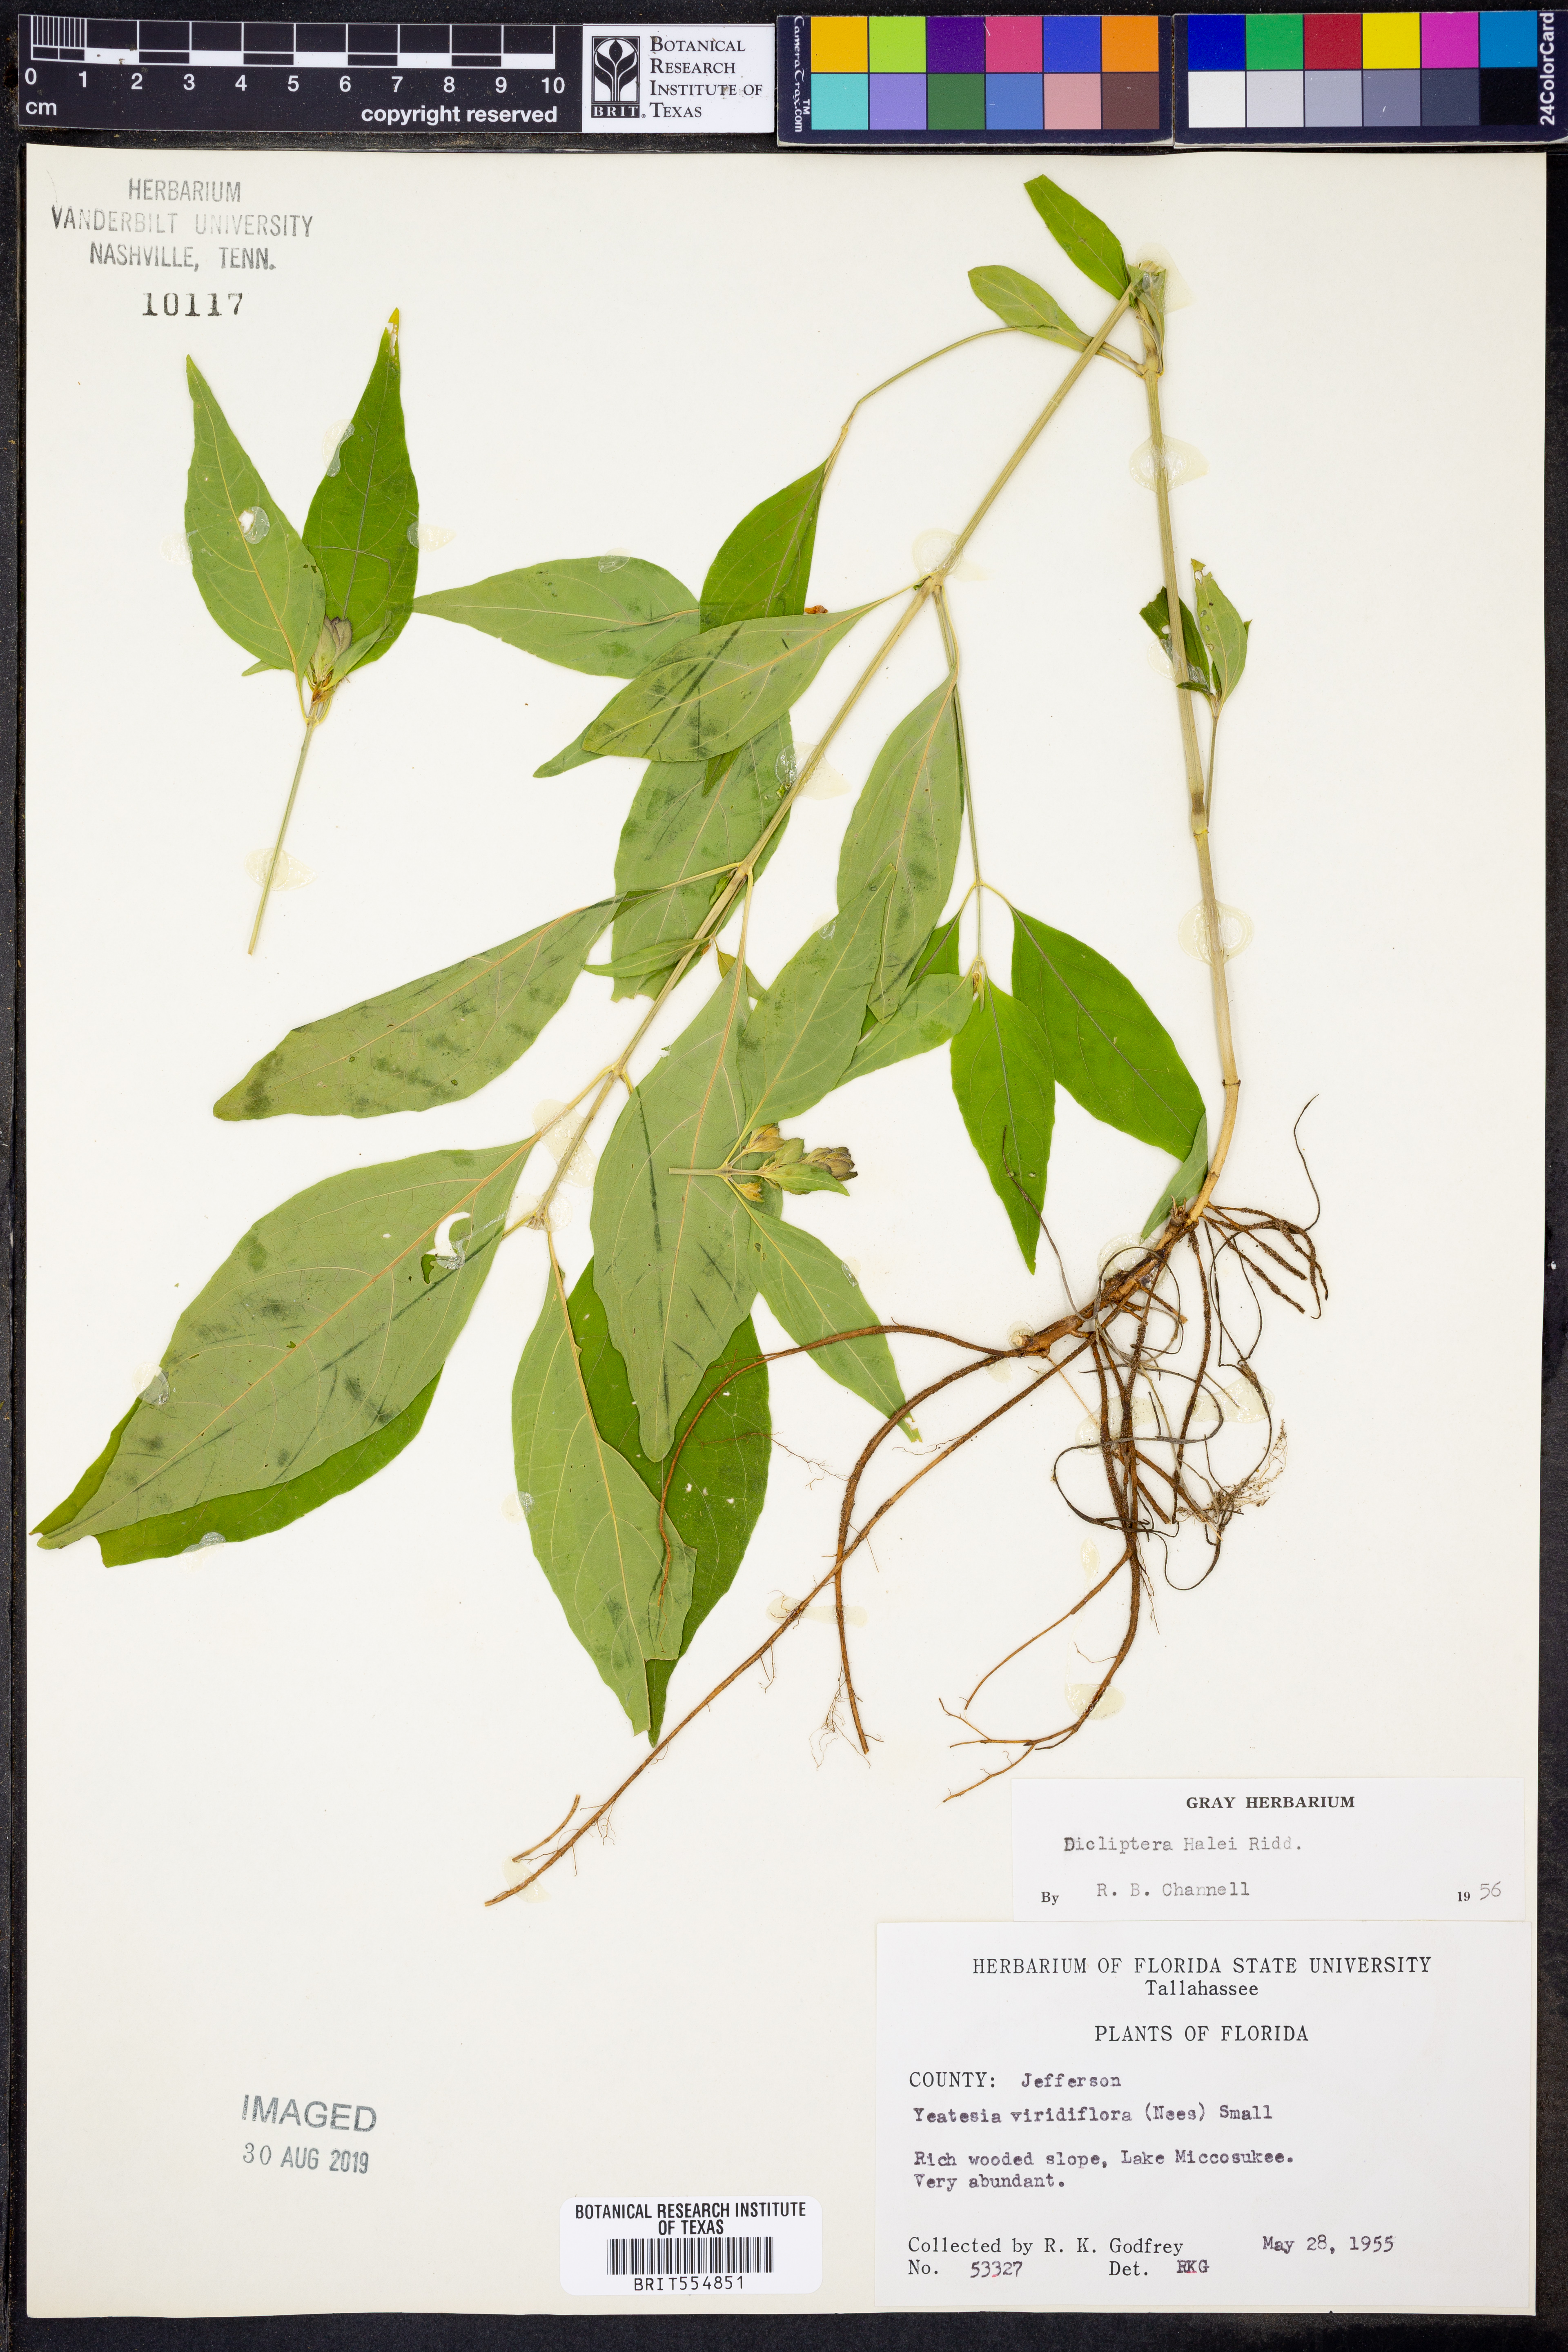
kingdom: Plantae
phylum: Tracheophyta
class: Magnoliopsida
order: Lamiales
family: Acanthaceae
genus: Yeatesia
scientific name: Yeatesia viridiflora
